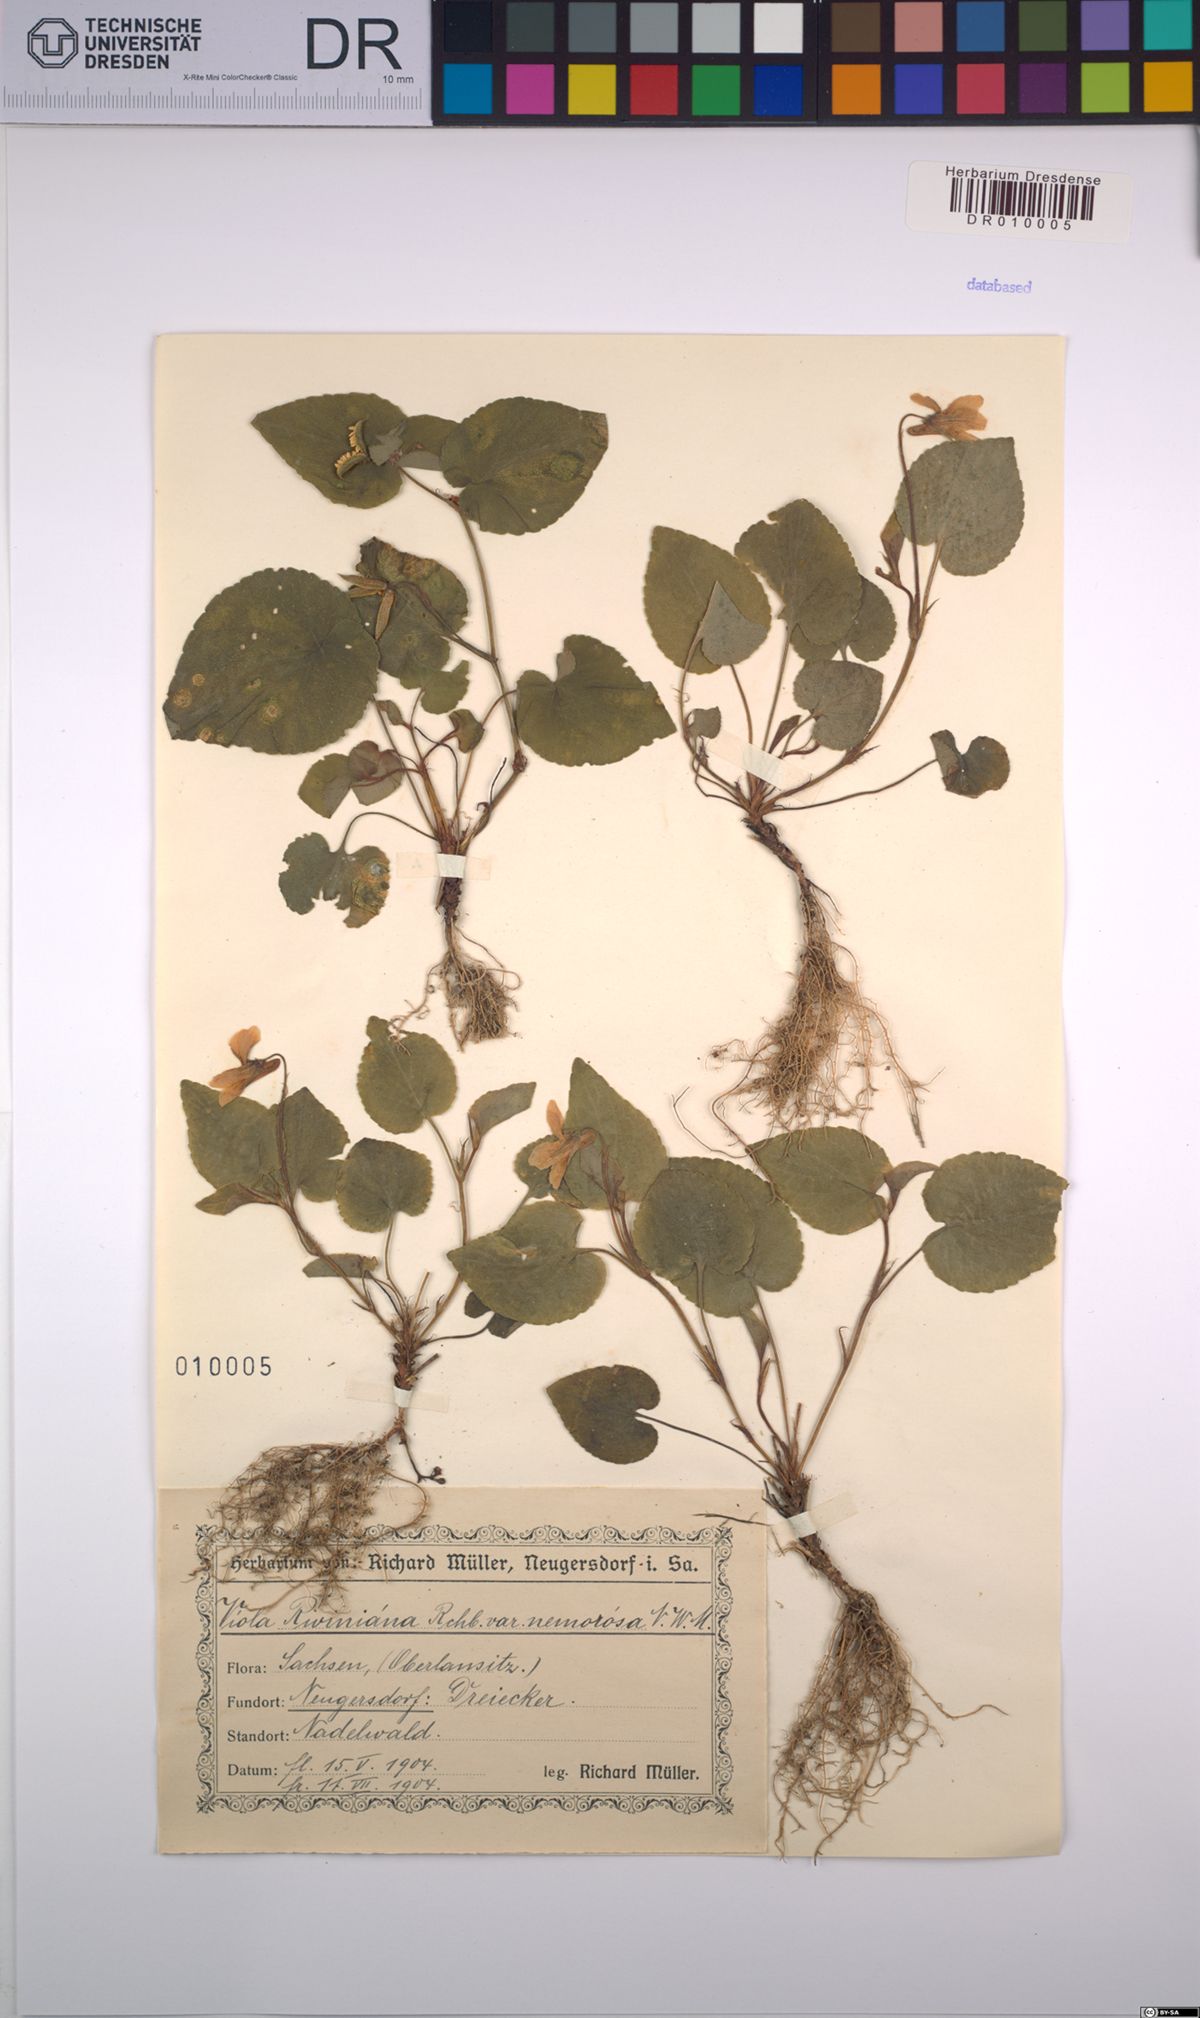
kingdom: Plantae
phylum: Tracheophyta
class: Magnoliopsida
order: Malpighiales
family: Violaceae
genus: Viola
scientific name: Viola riviniana
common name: Common dog-violet
